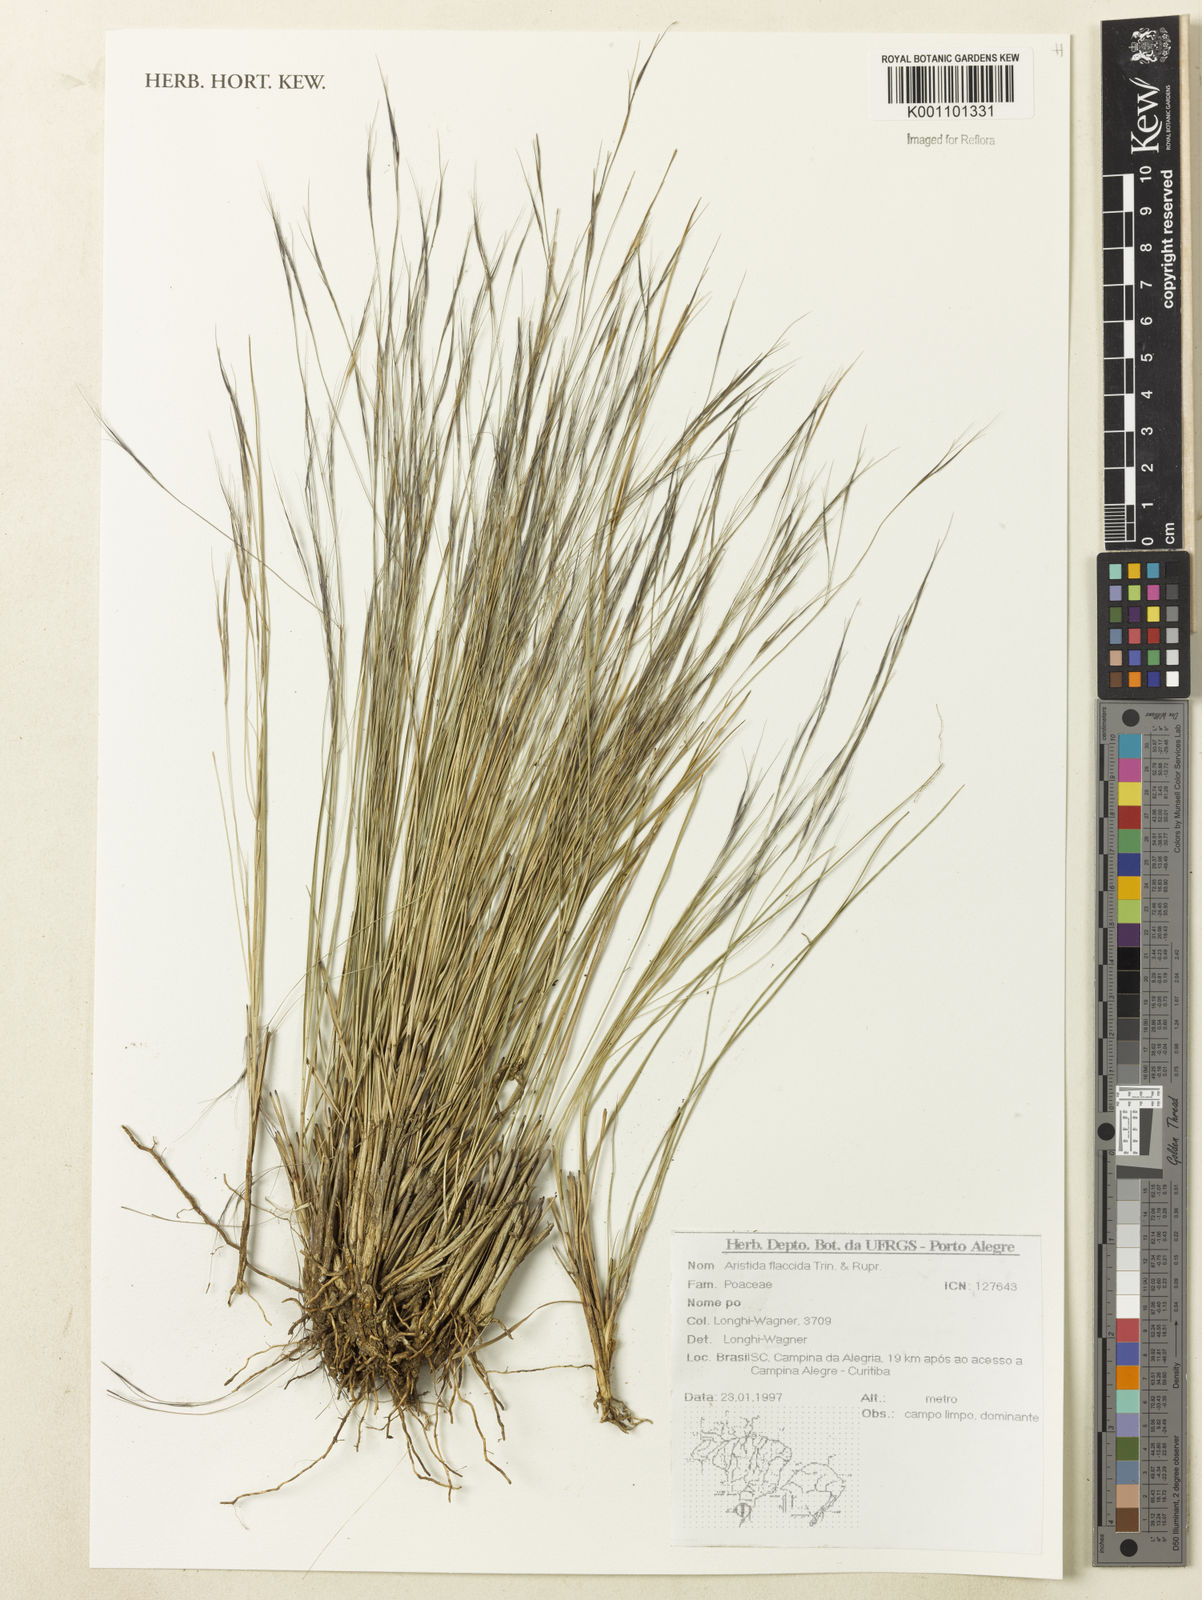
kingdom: Plantae
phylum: Tracheophyta
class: Liliopsida
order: Poales
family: Poaceae
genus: Aristida
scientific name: Aristida flaccida
